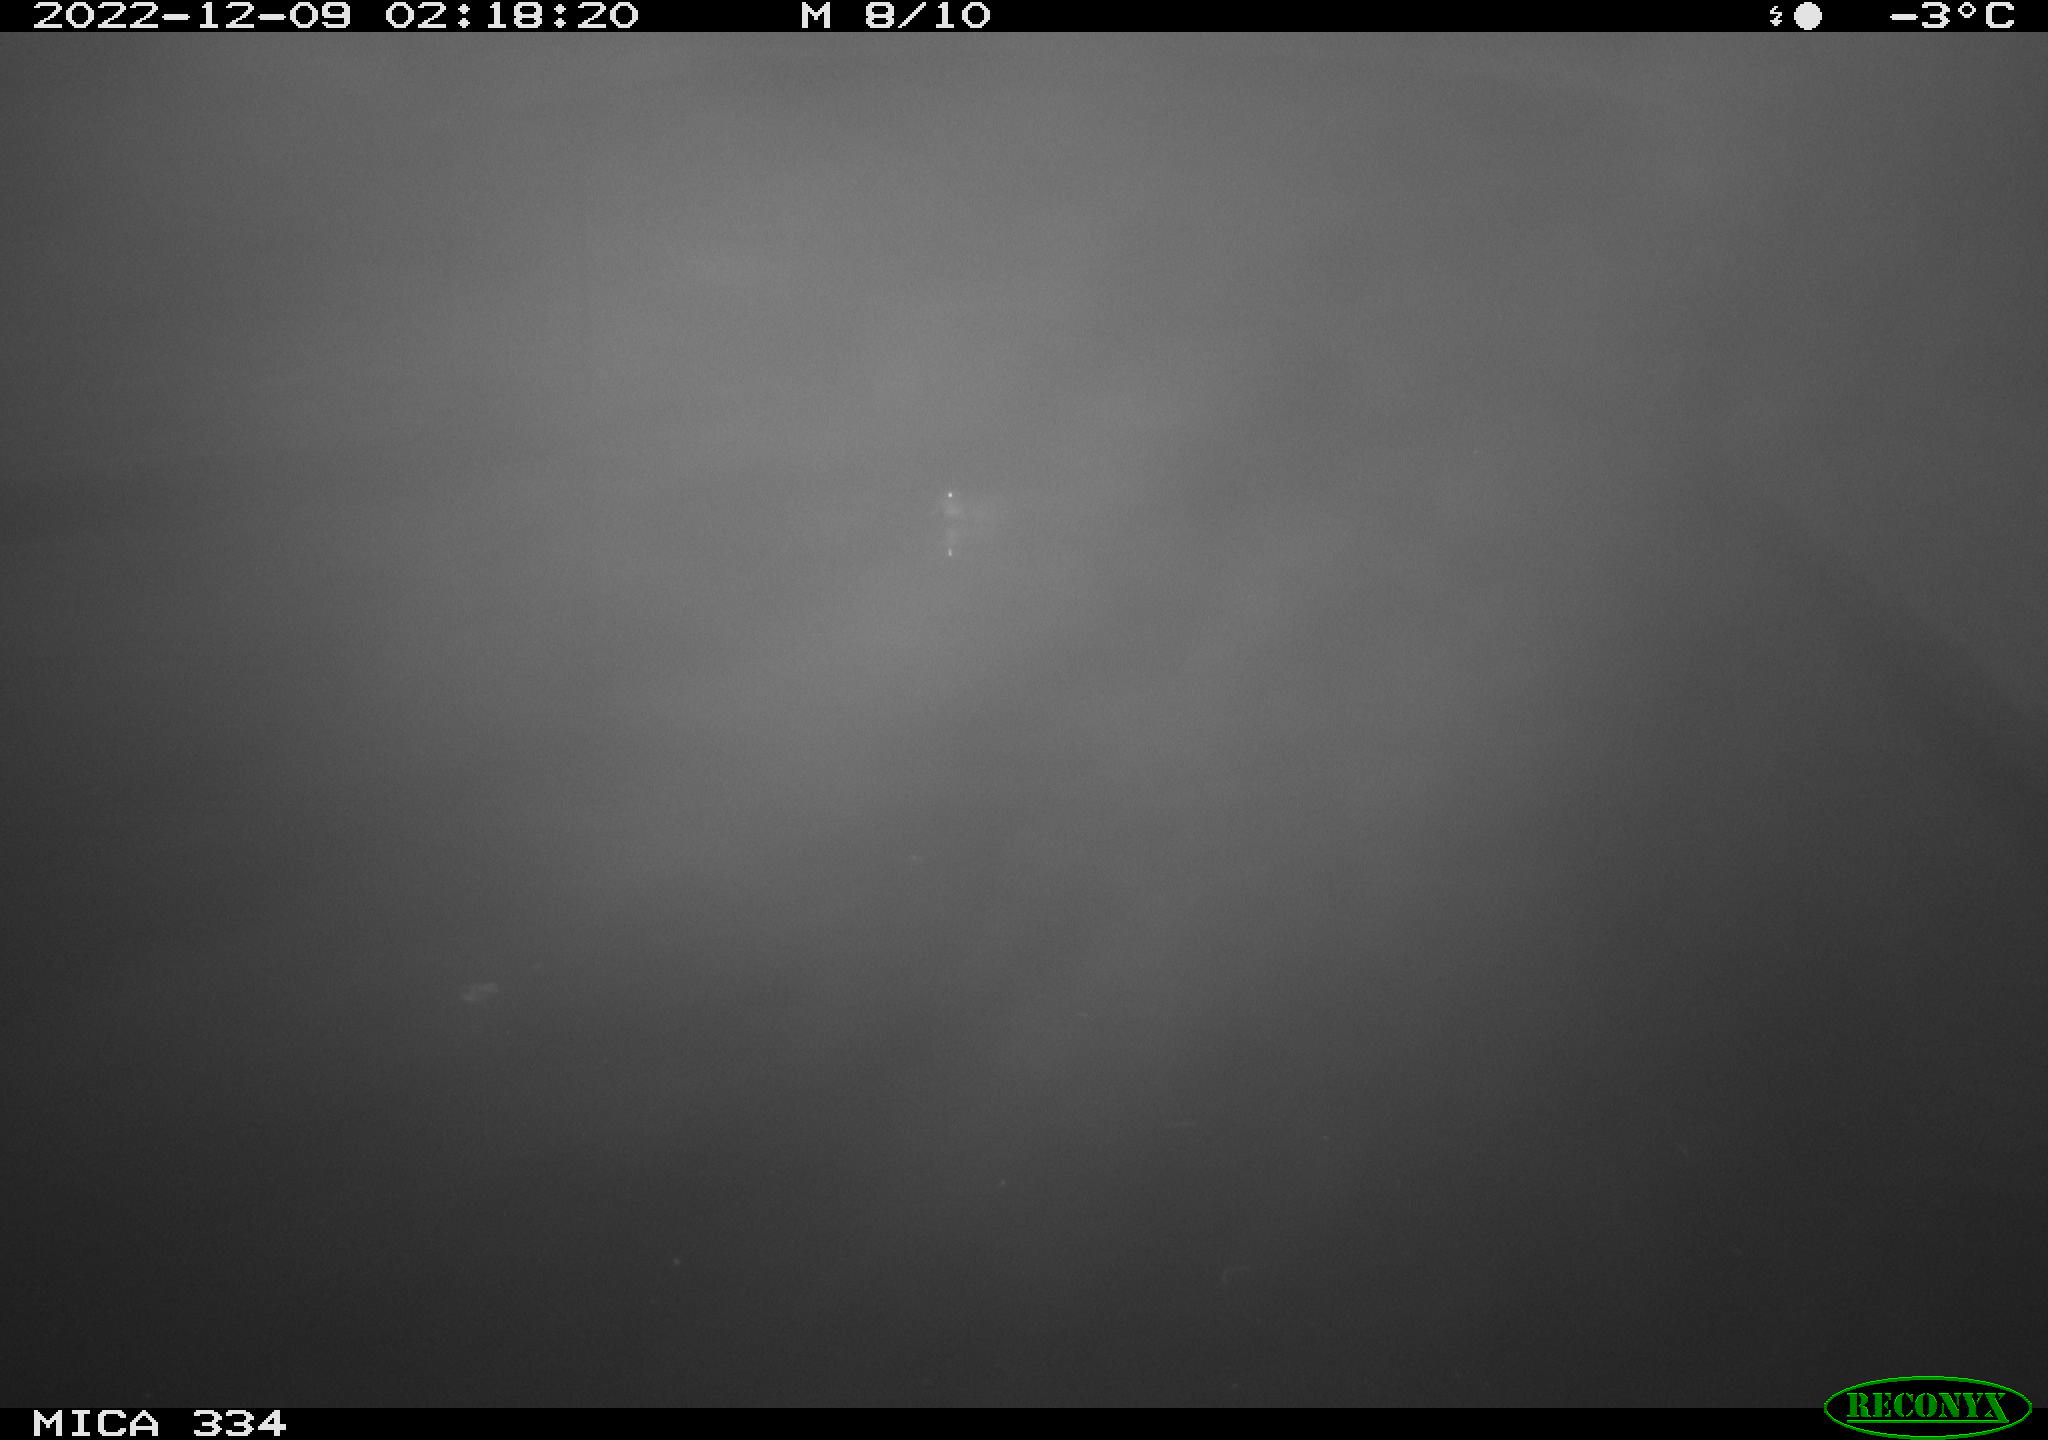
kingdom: Animalia
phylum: Chordata
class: Aves
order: Anseriformes
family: Anatidae
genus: Anas
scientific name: Anas
